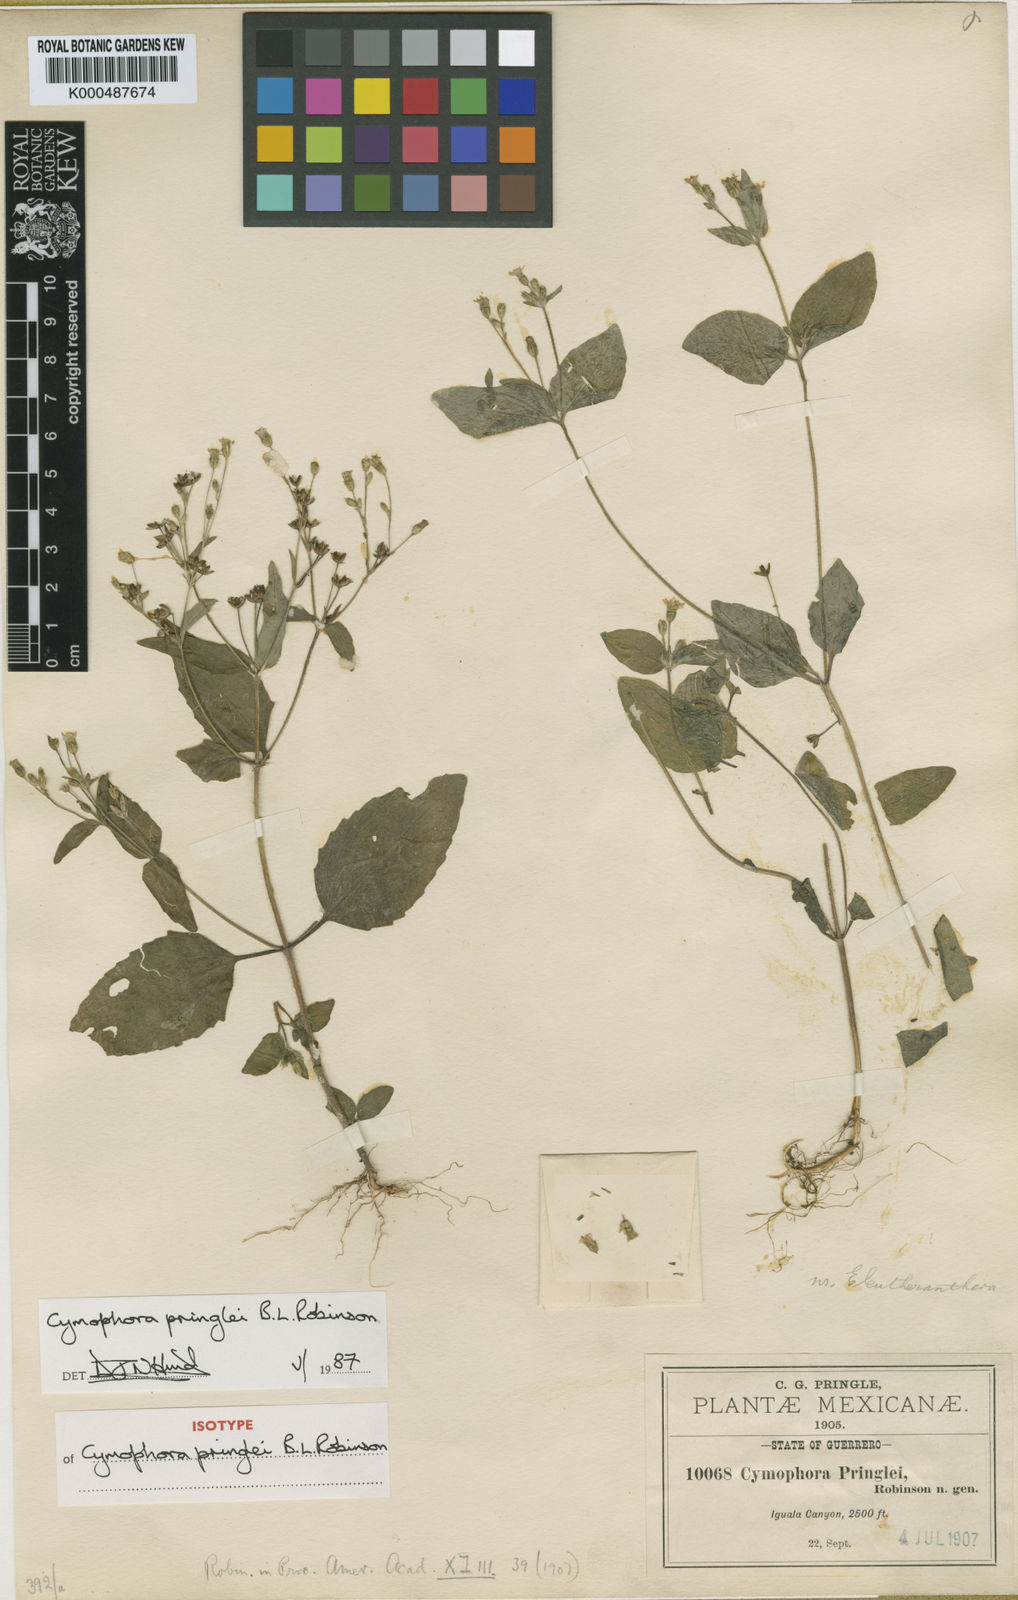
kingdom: Plantae
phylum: Tracheophyta
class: Magnoliopsida
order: Asterales
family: Asteraceae
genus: Cymophora
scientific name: Cymophora pringlei
